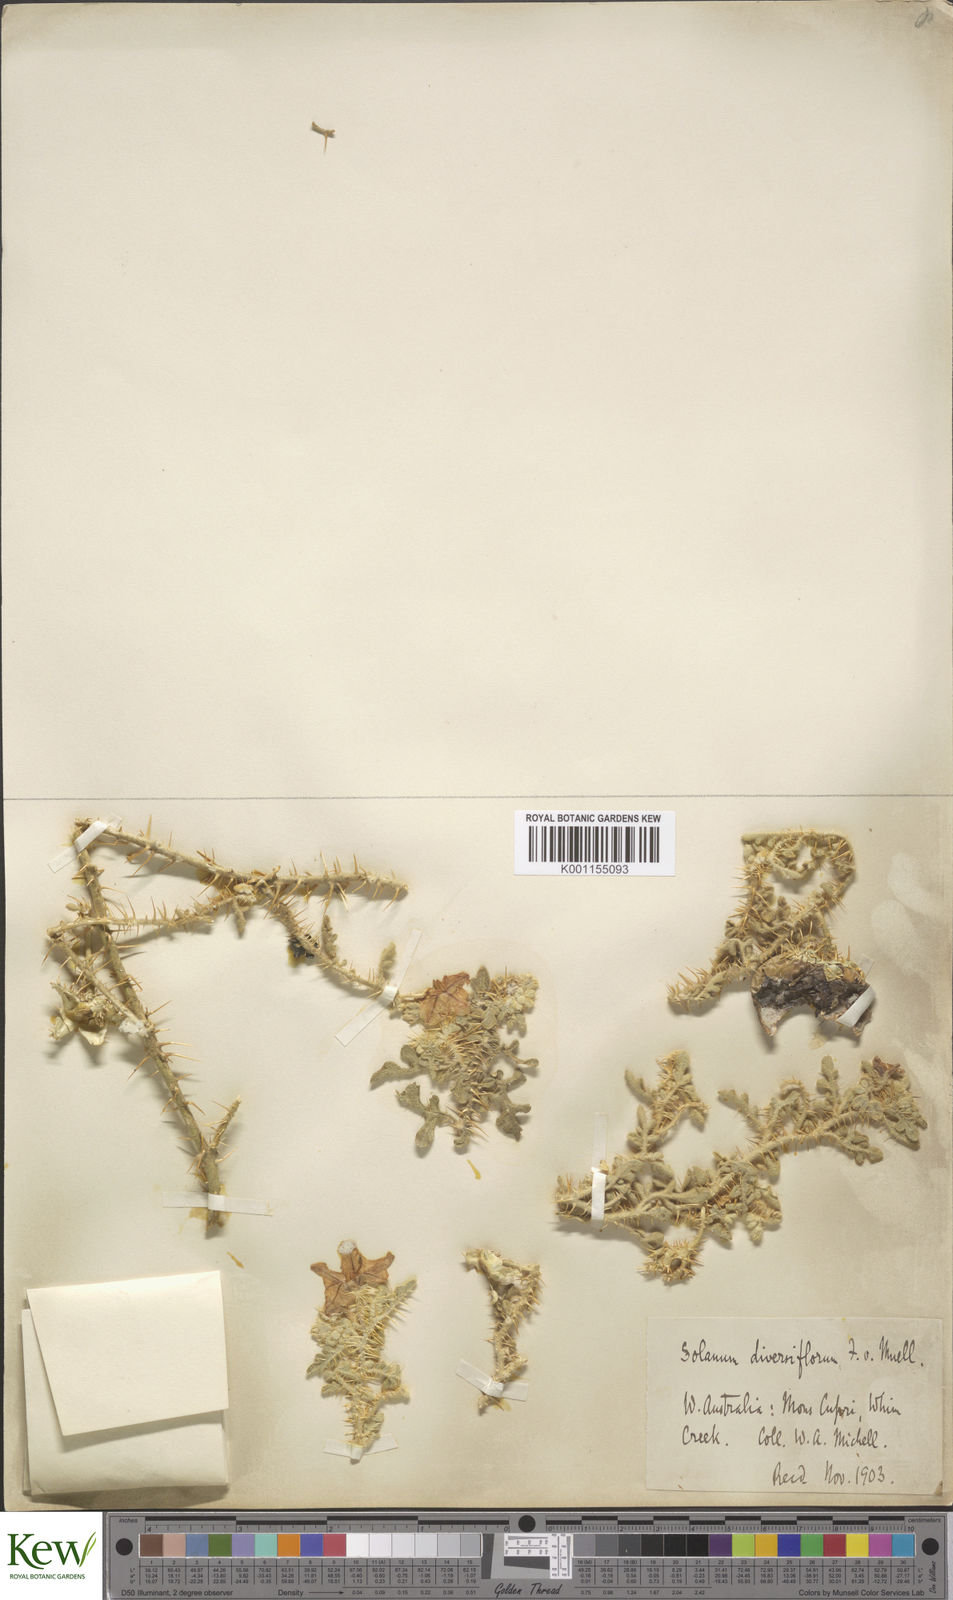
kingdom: Plantae
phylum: Tracheophyta
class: Magnoliopsida
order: Solanales
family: Solanaceae
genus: Solanum
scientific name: Solanum diversiflorum
